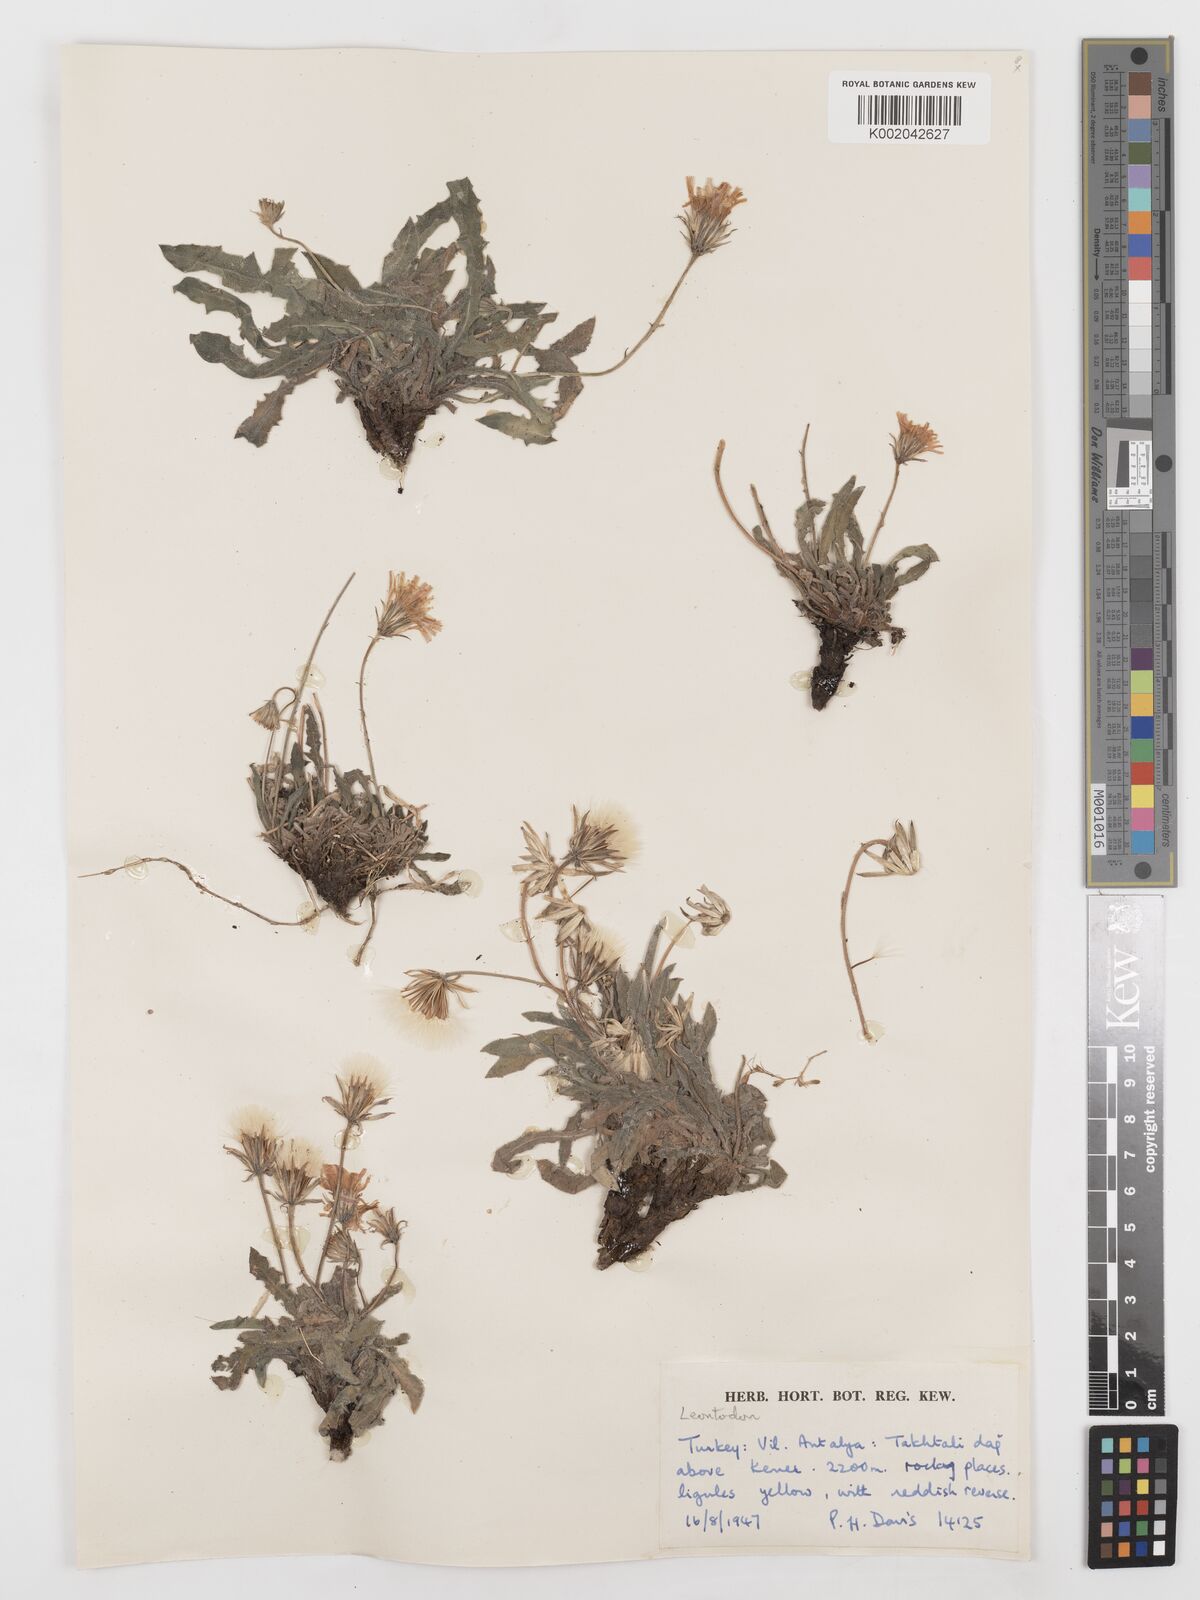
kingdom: Plantae
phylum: Tracheophyta
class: Magnoliopsida
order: Asterales
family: Asteraceae
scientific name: Asteraceae
